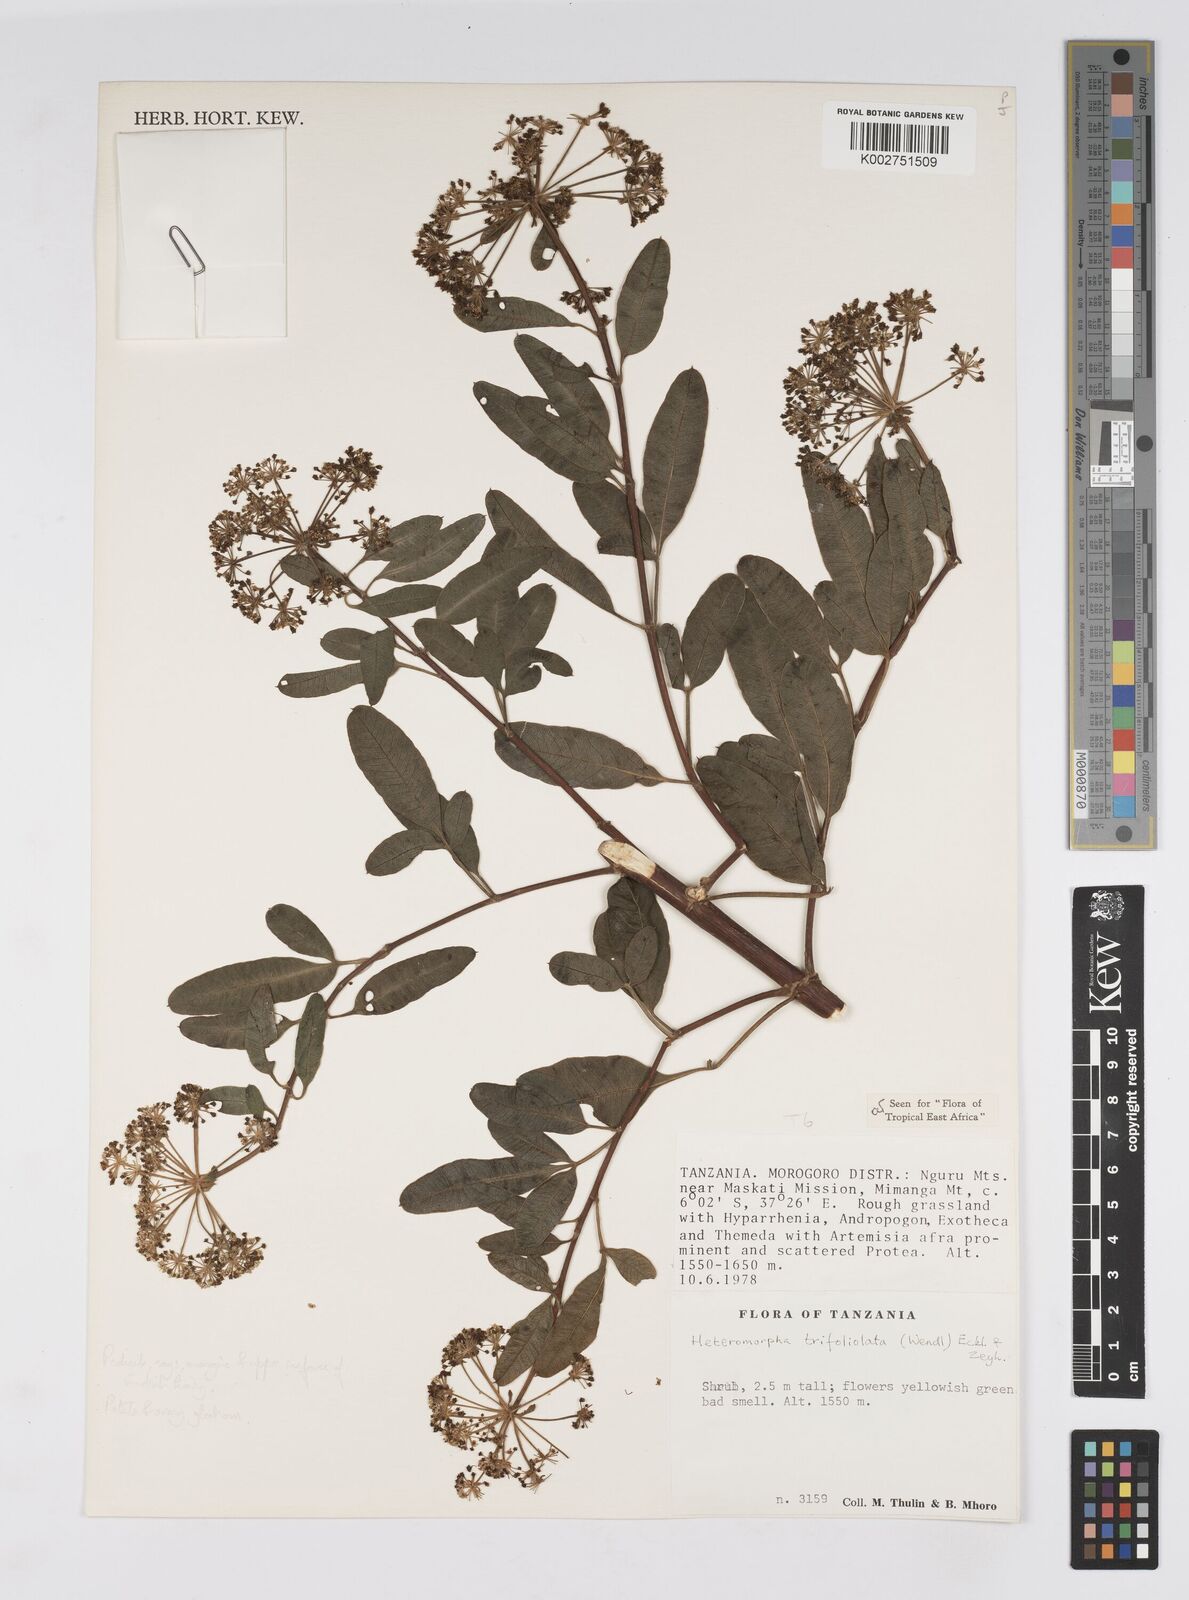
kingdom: Plantae
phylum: Tracheophyta
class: Magnoliopsida
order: Apiales
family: Apiaceae
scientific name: Apiaceae
